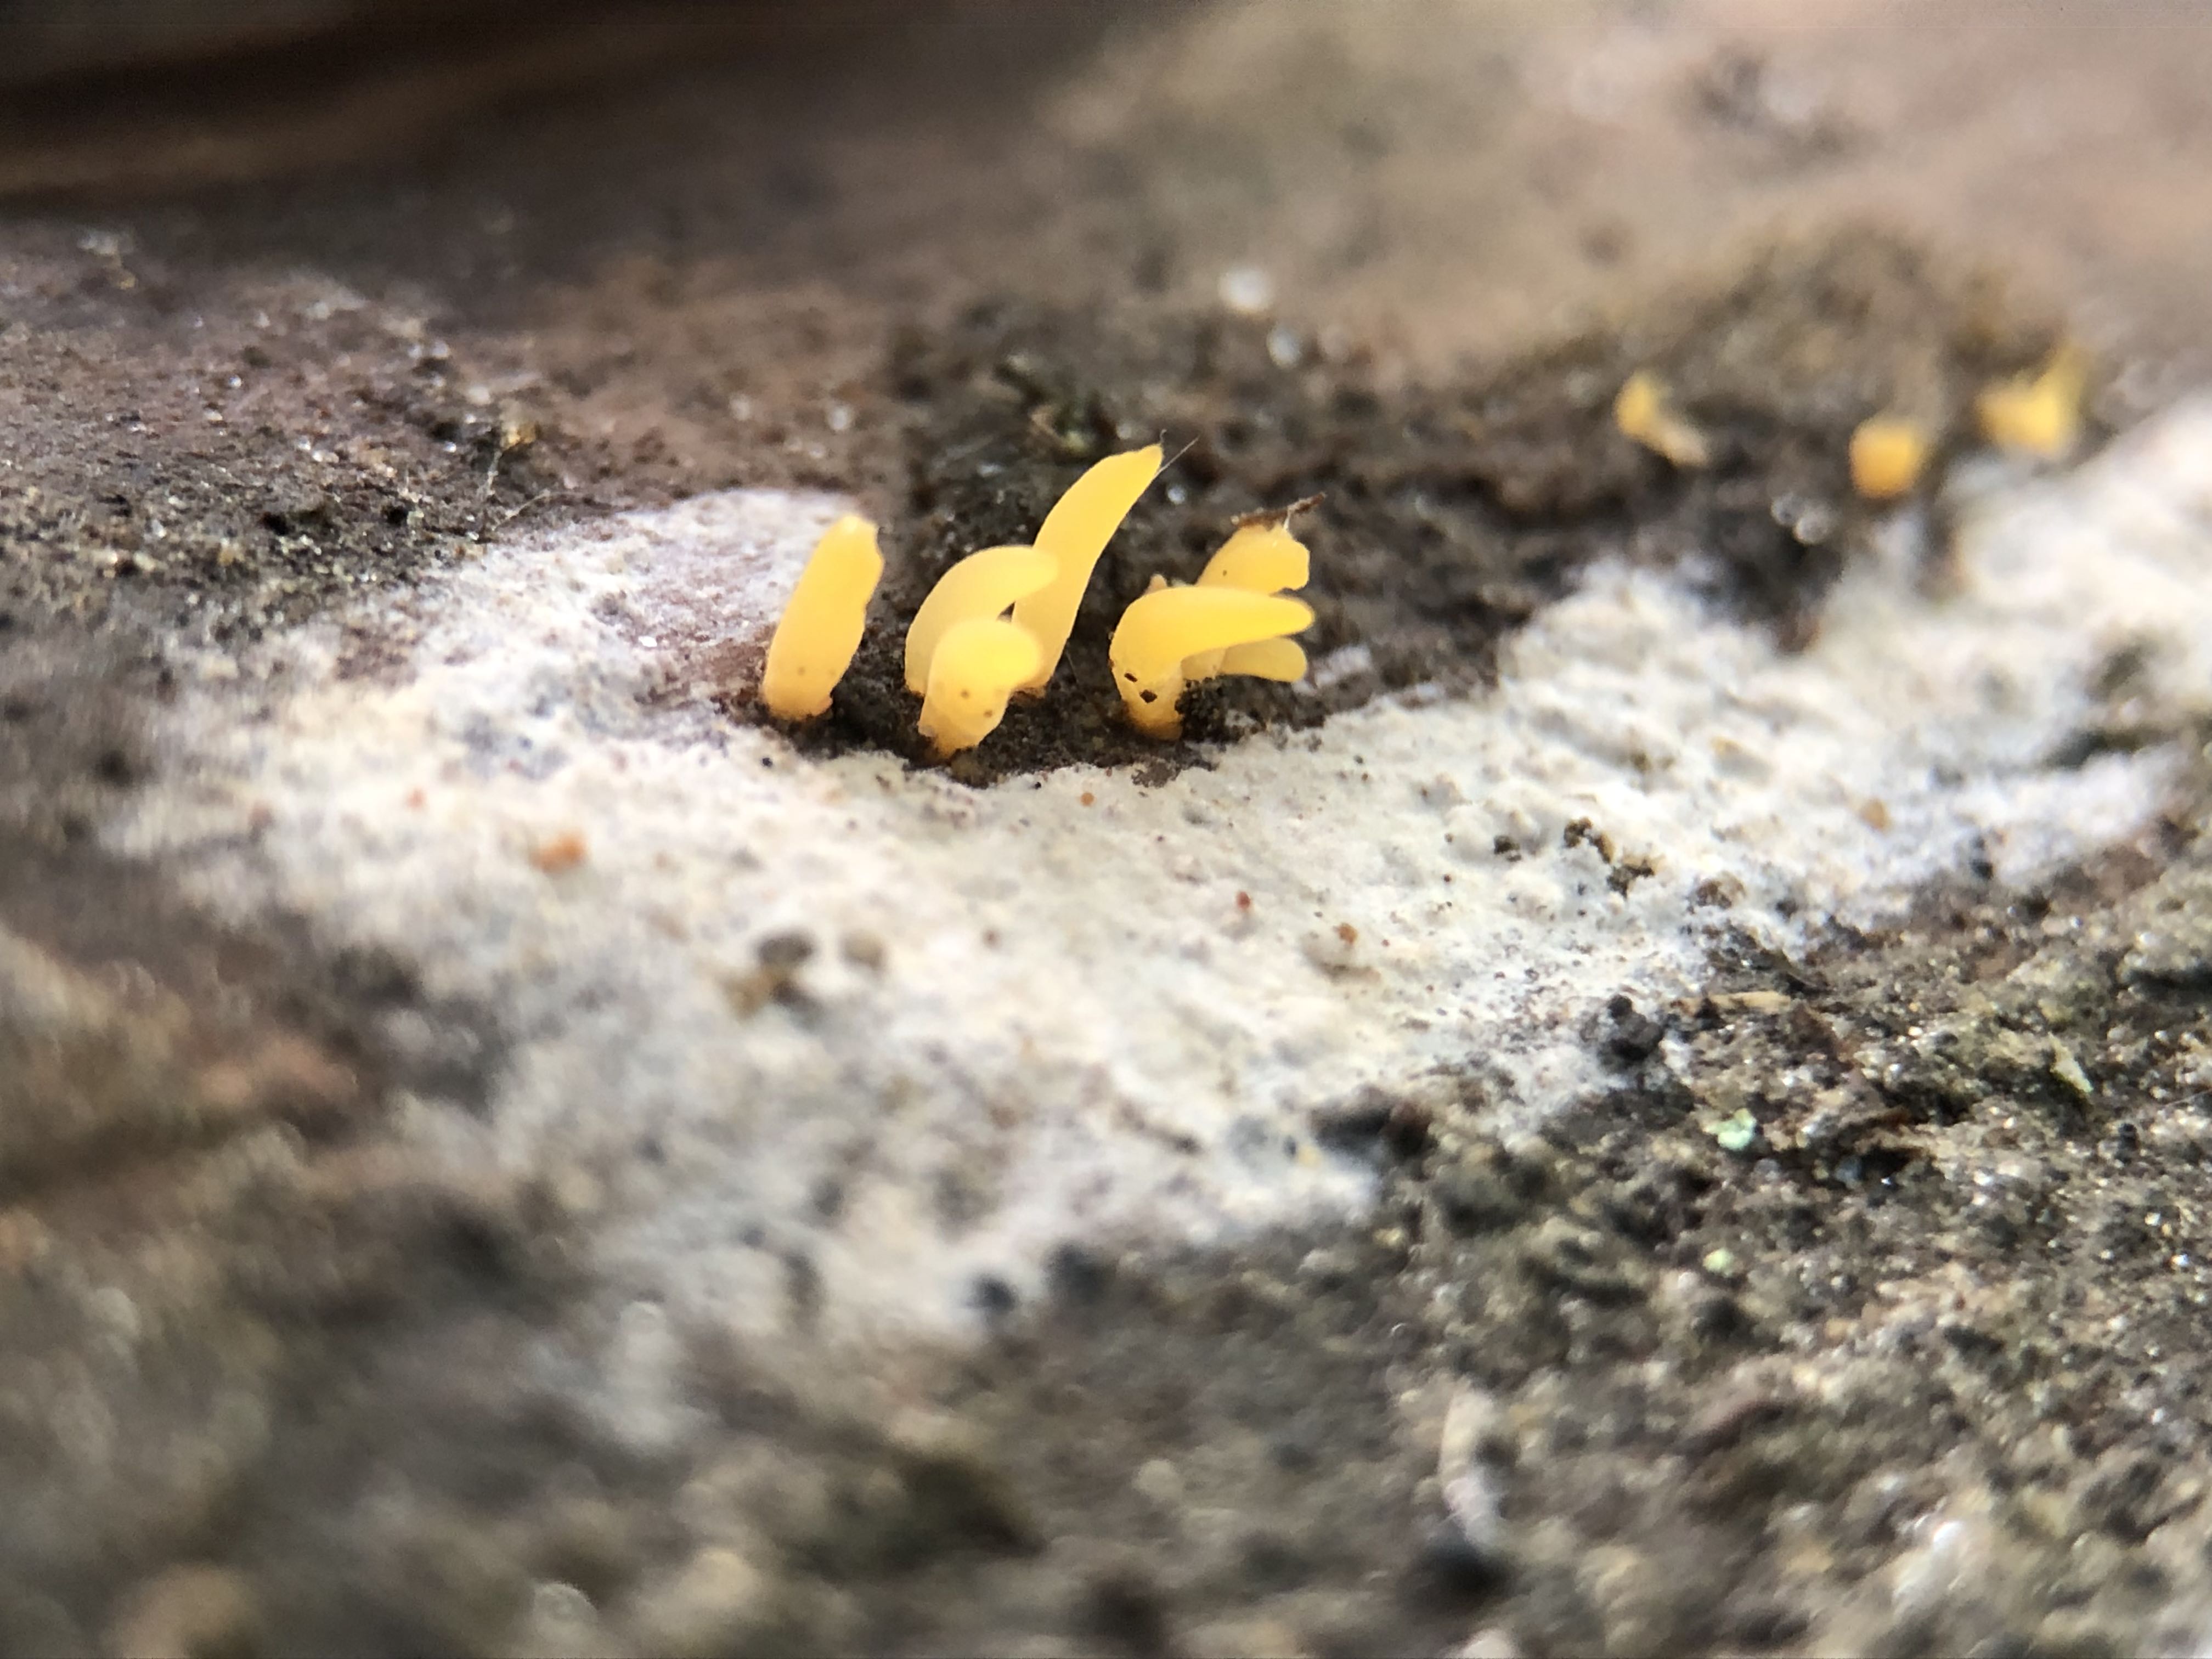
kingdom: Fungi
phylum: Basidiomycota
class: Dacrymycetes
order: Dacrymycetales
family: Dacrymycetaceae
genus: Calocera
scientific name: Calocera cornea
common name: liden guldgaffel
